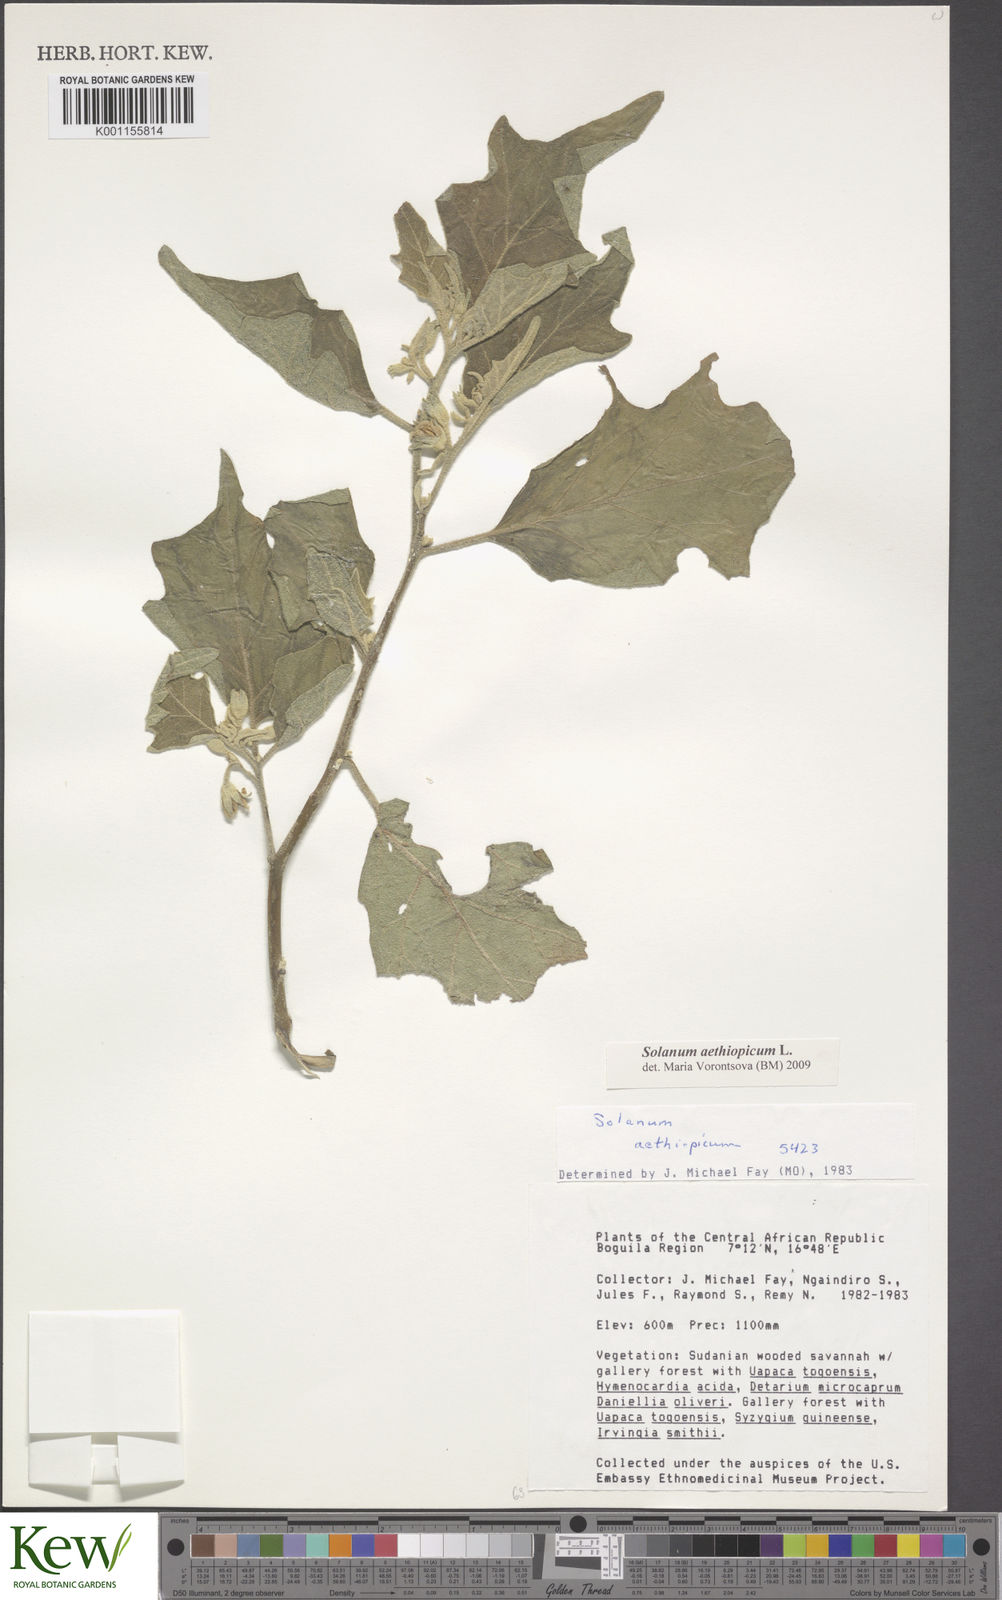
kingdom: Plantae
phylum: Tracheophyta
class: Magnoliopsida
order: Solanales
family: Solanaceae
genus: Solanum
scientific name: Solanum aethiopicum
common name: Gilo
